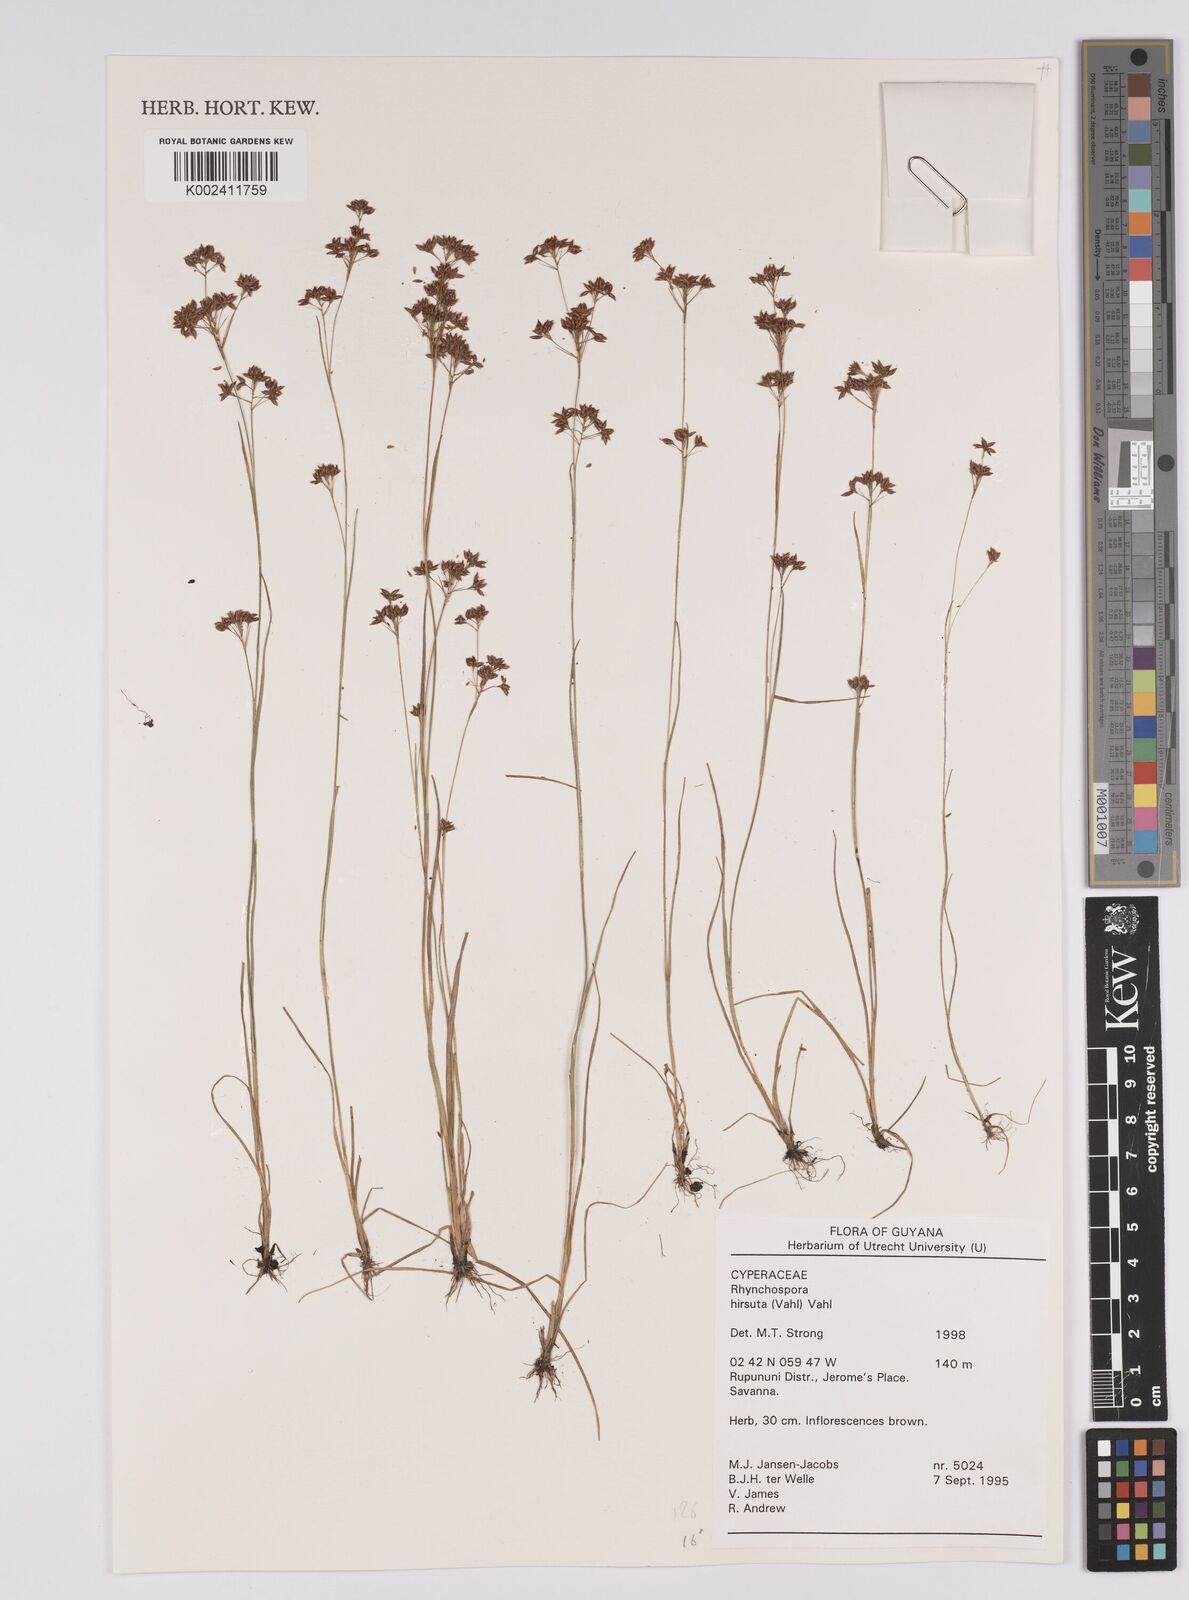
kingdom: Plantae
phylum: Tracheophyta
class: Liliopsida
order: Poales
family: Cyperaceae
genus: Rhynchospora
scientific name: Rhynchospora hirsuta
